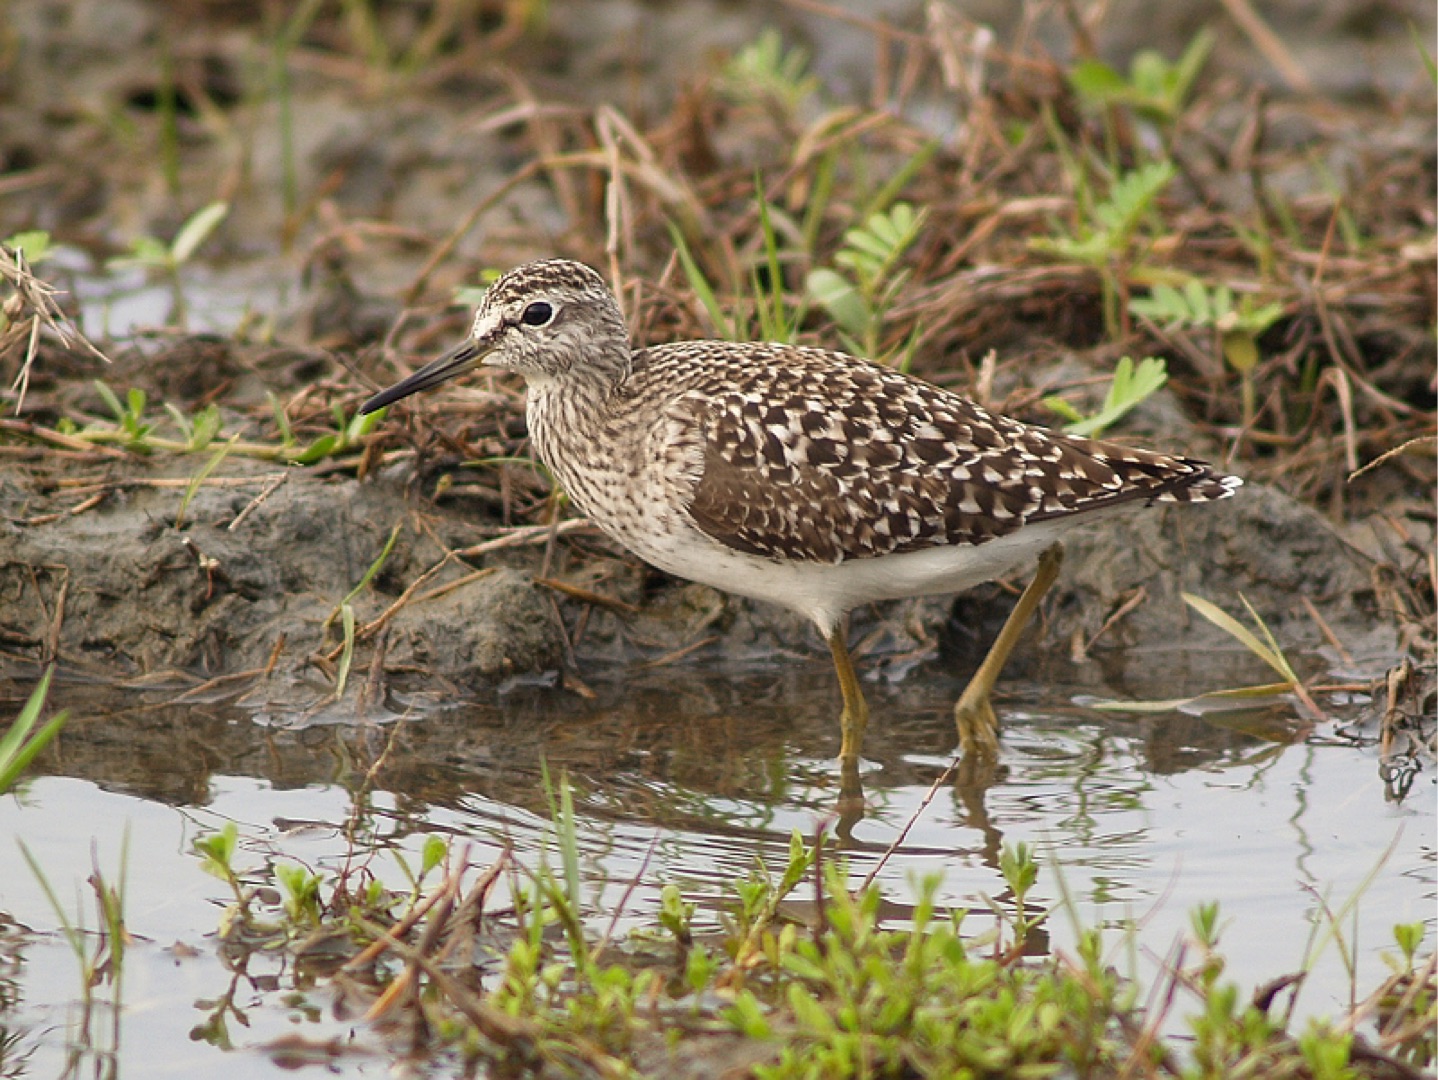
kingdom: Animalia
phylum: Chordata
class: Aves
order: Charadriiformes
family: Scolopacidae
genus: Tringa
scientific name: Tringa glareola
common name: Tinksmed
